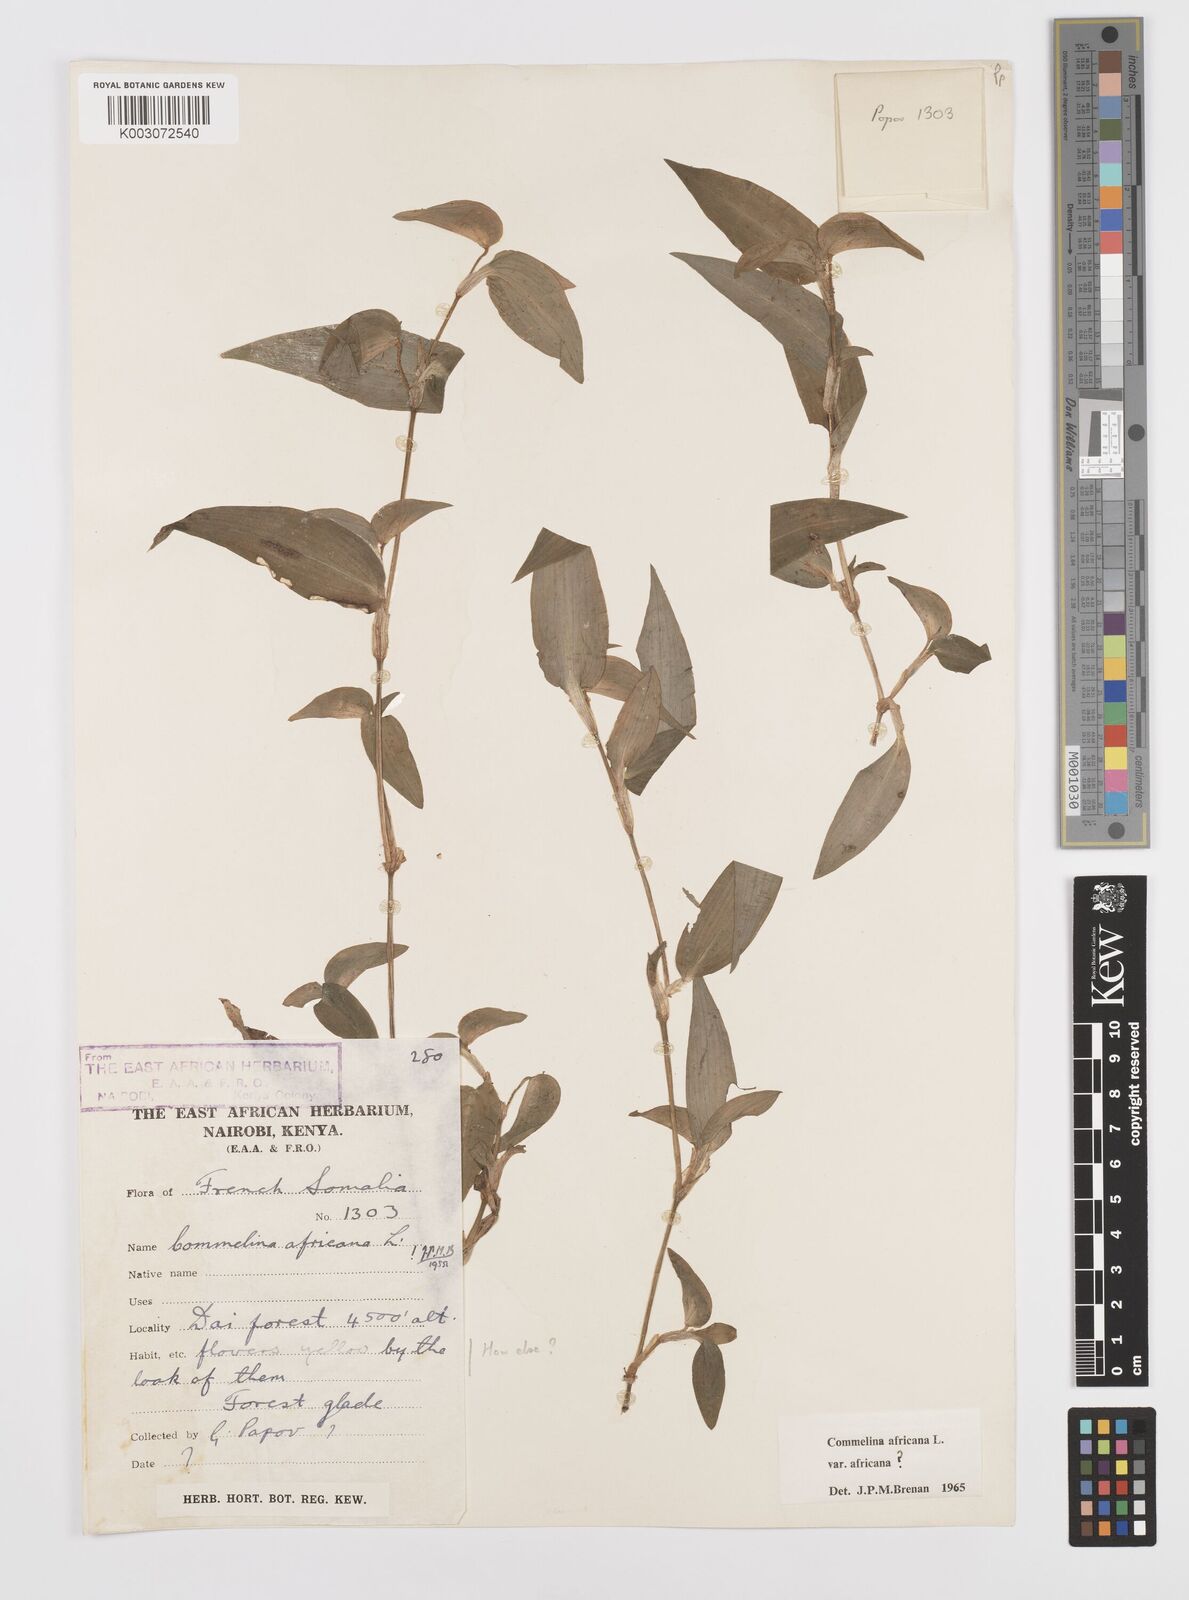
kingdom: Plantae
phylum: Tracheophyta
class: Liliopsida
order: Commelinales
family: Commelinaceae
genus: Commelina
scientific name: Commelina africana
